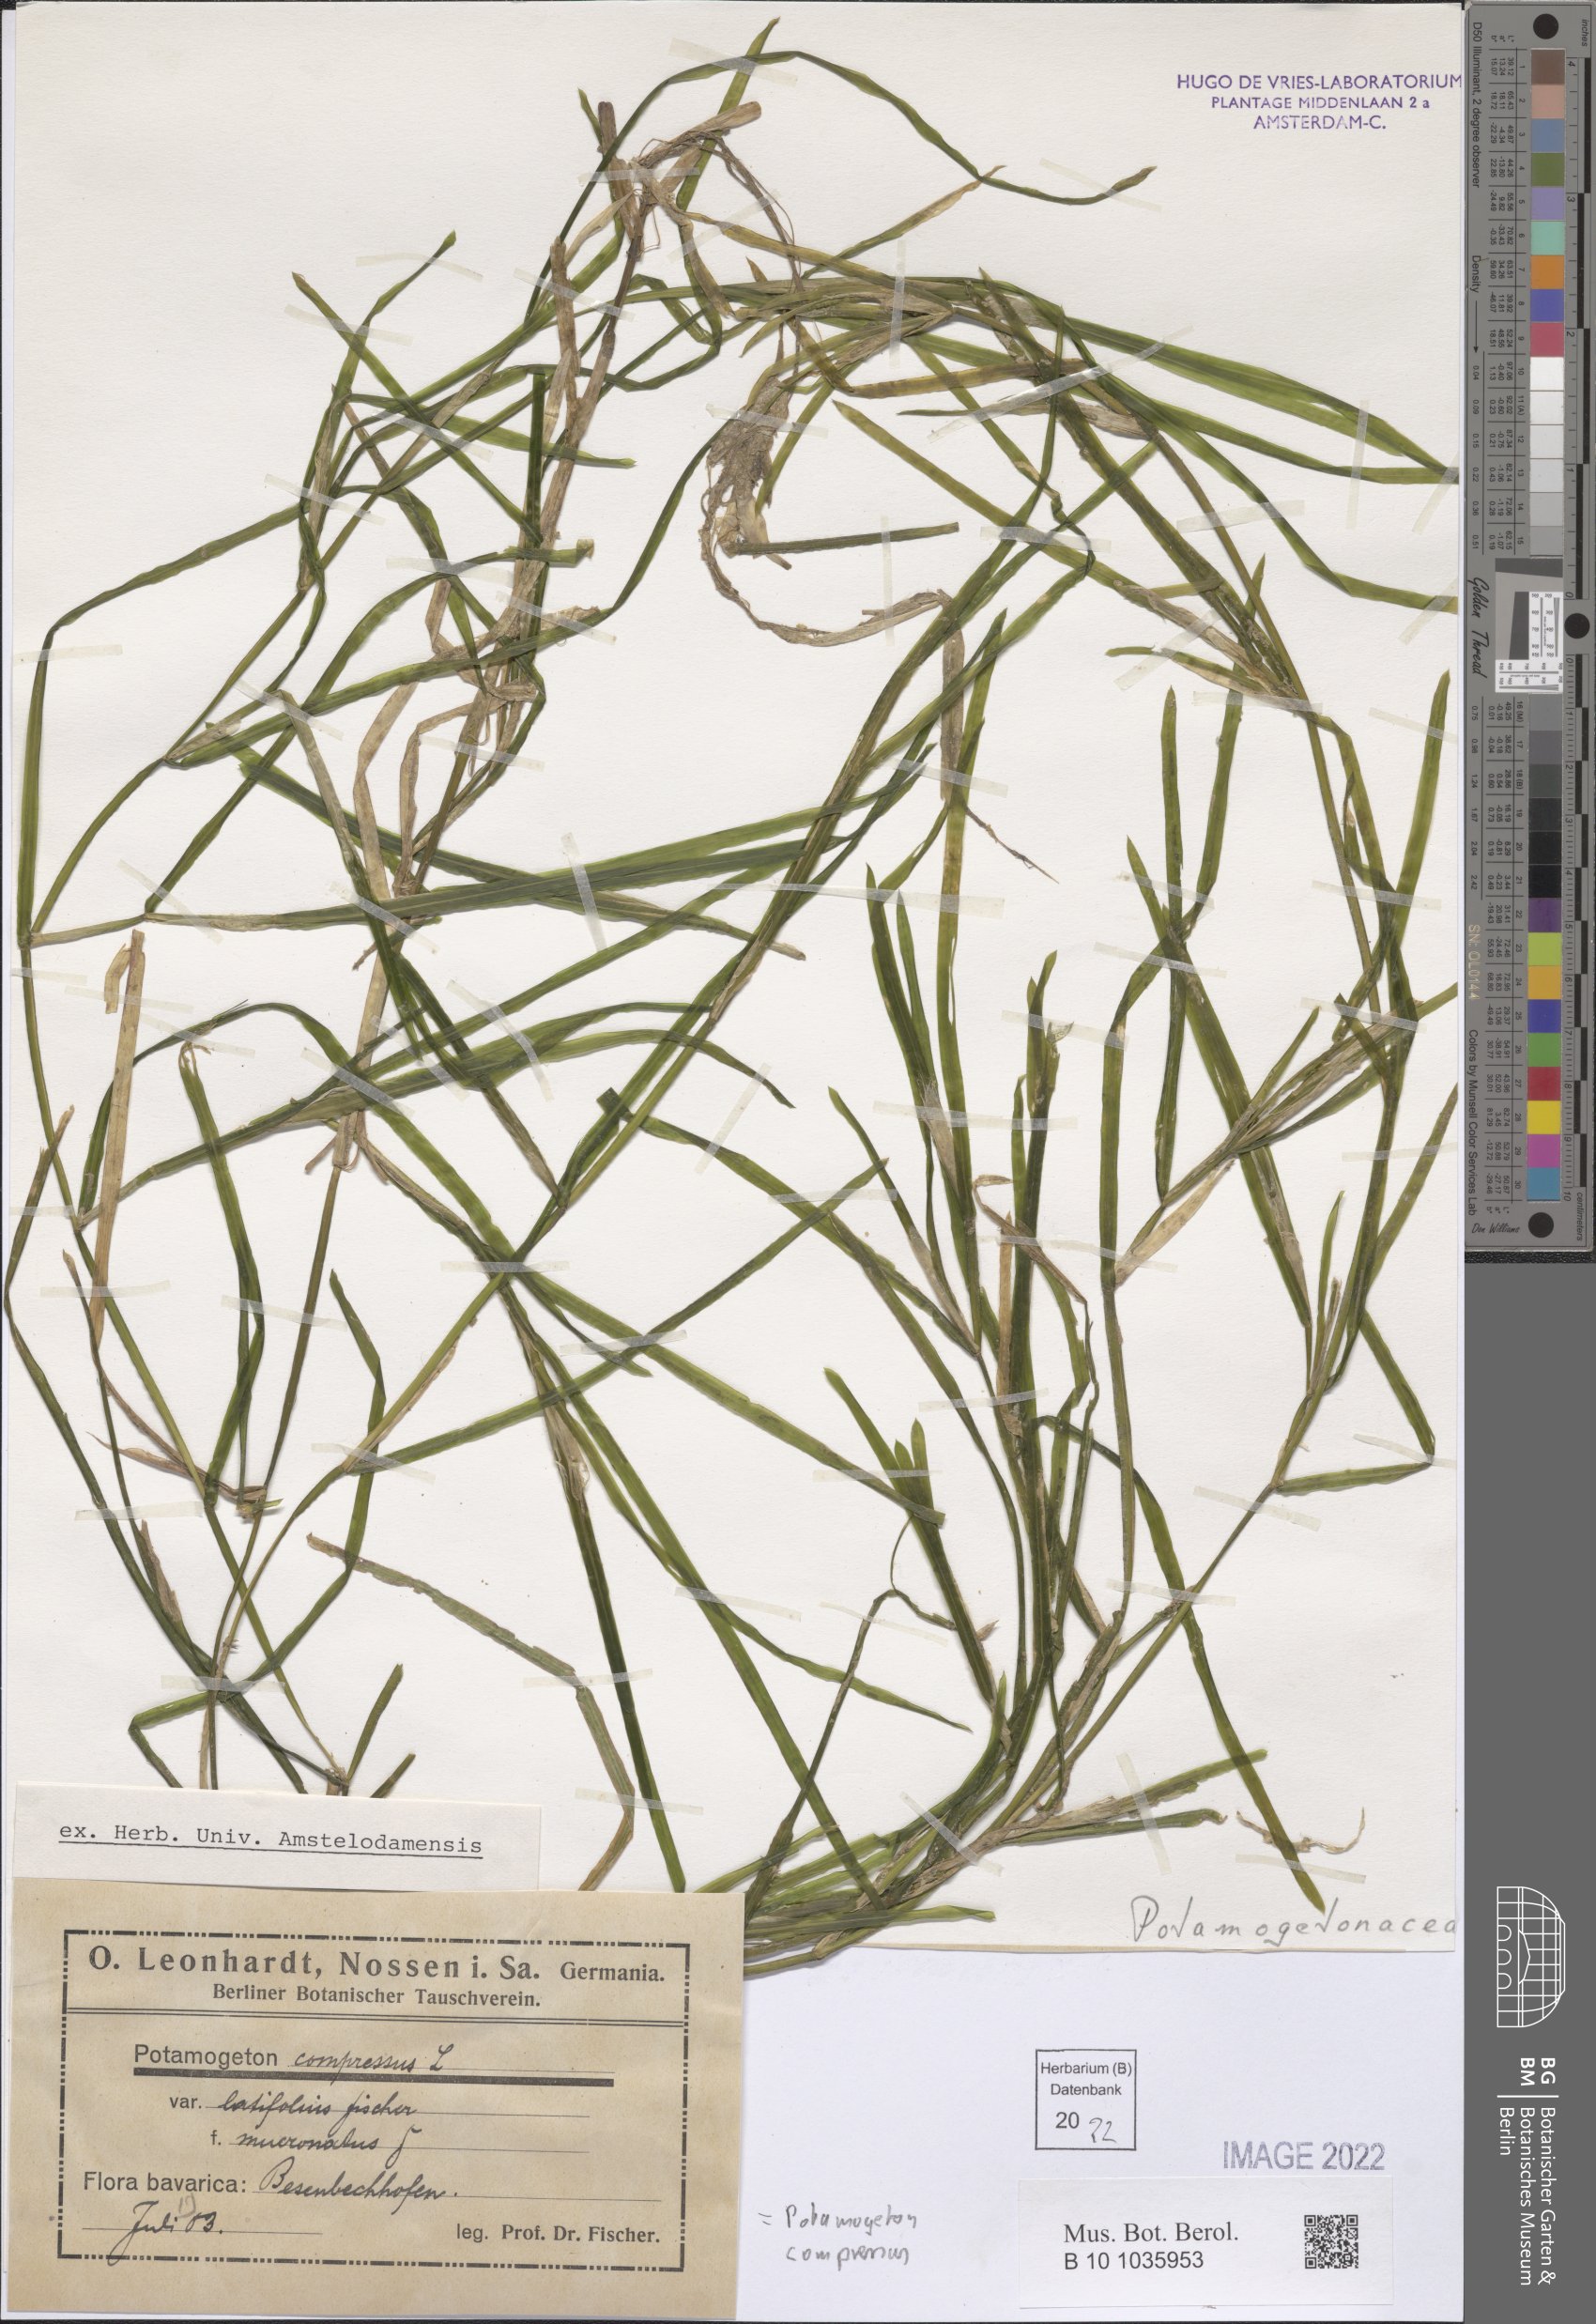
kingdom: Plantae
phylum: Tracheophyta
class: Liliopsida
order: Alismatales
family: Potamogetonaceae
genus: Potamogeton
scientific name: Potamogeton compressus
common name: Grass-wrack pondweed
